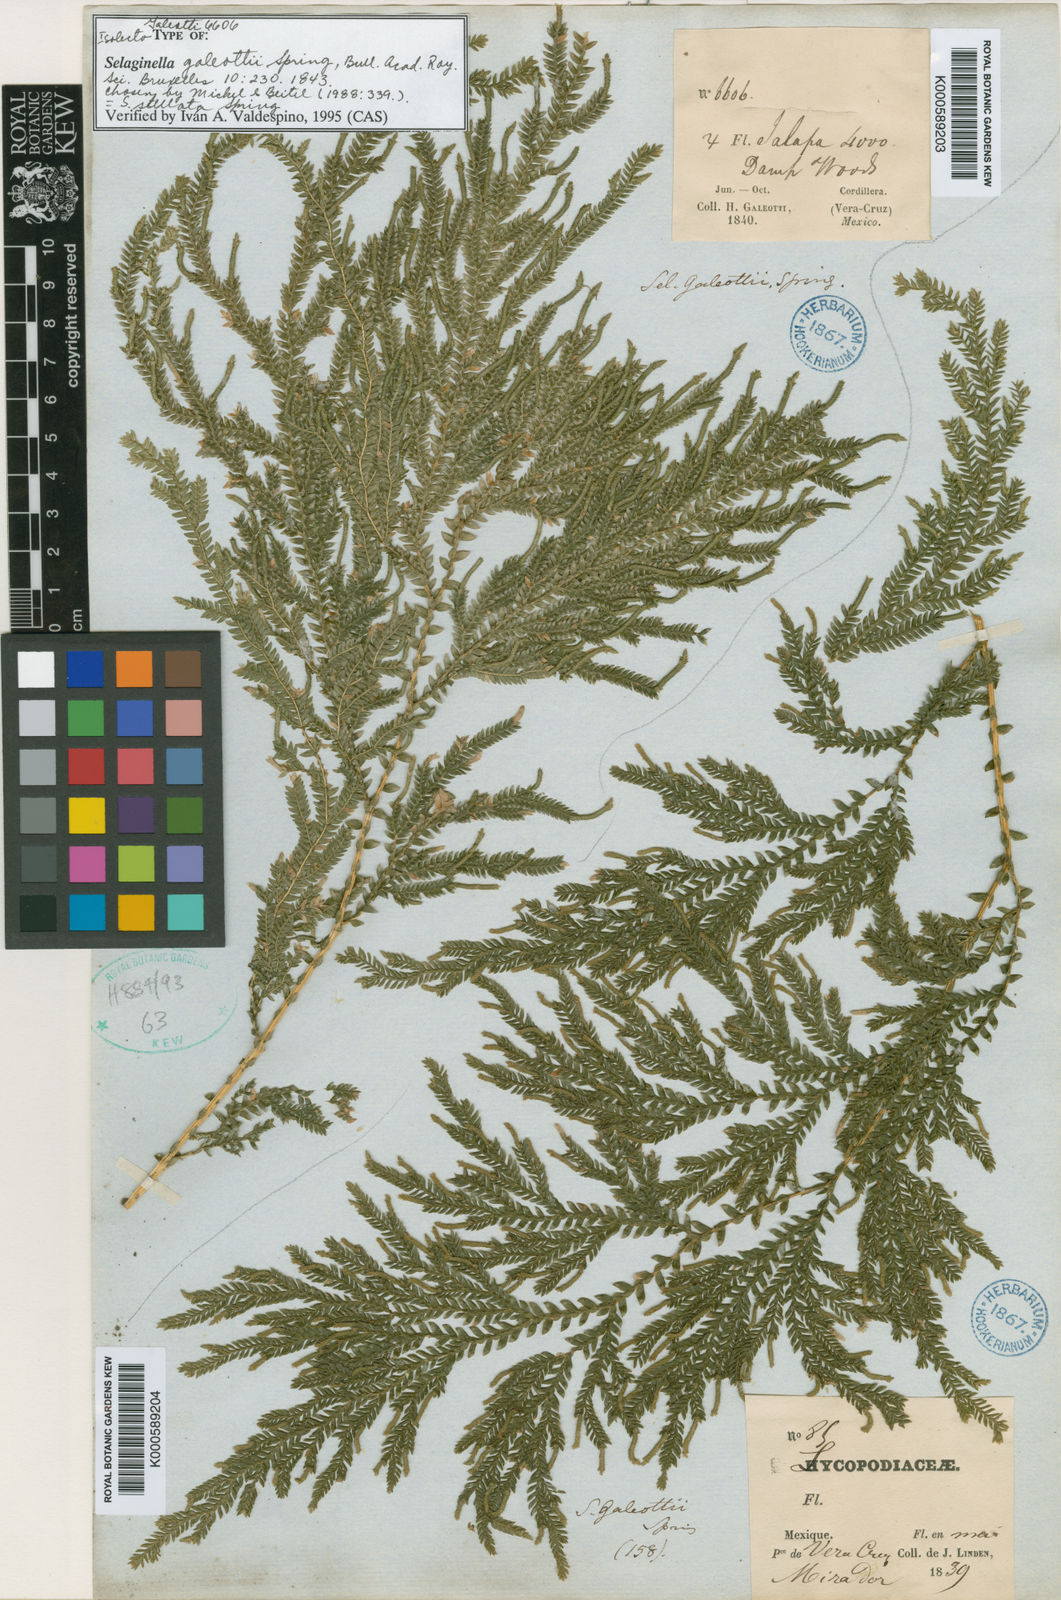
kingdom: Plantae
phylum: Tracheophyta
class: Lycopodiopsida
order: Selaginellales
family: Selaginellaceae
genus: Selaginella
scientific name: Selaginella stellata
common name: Starry spikemoss
